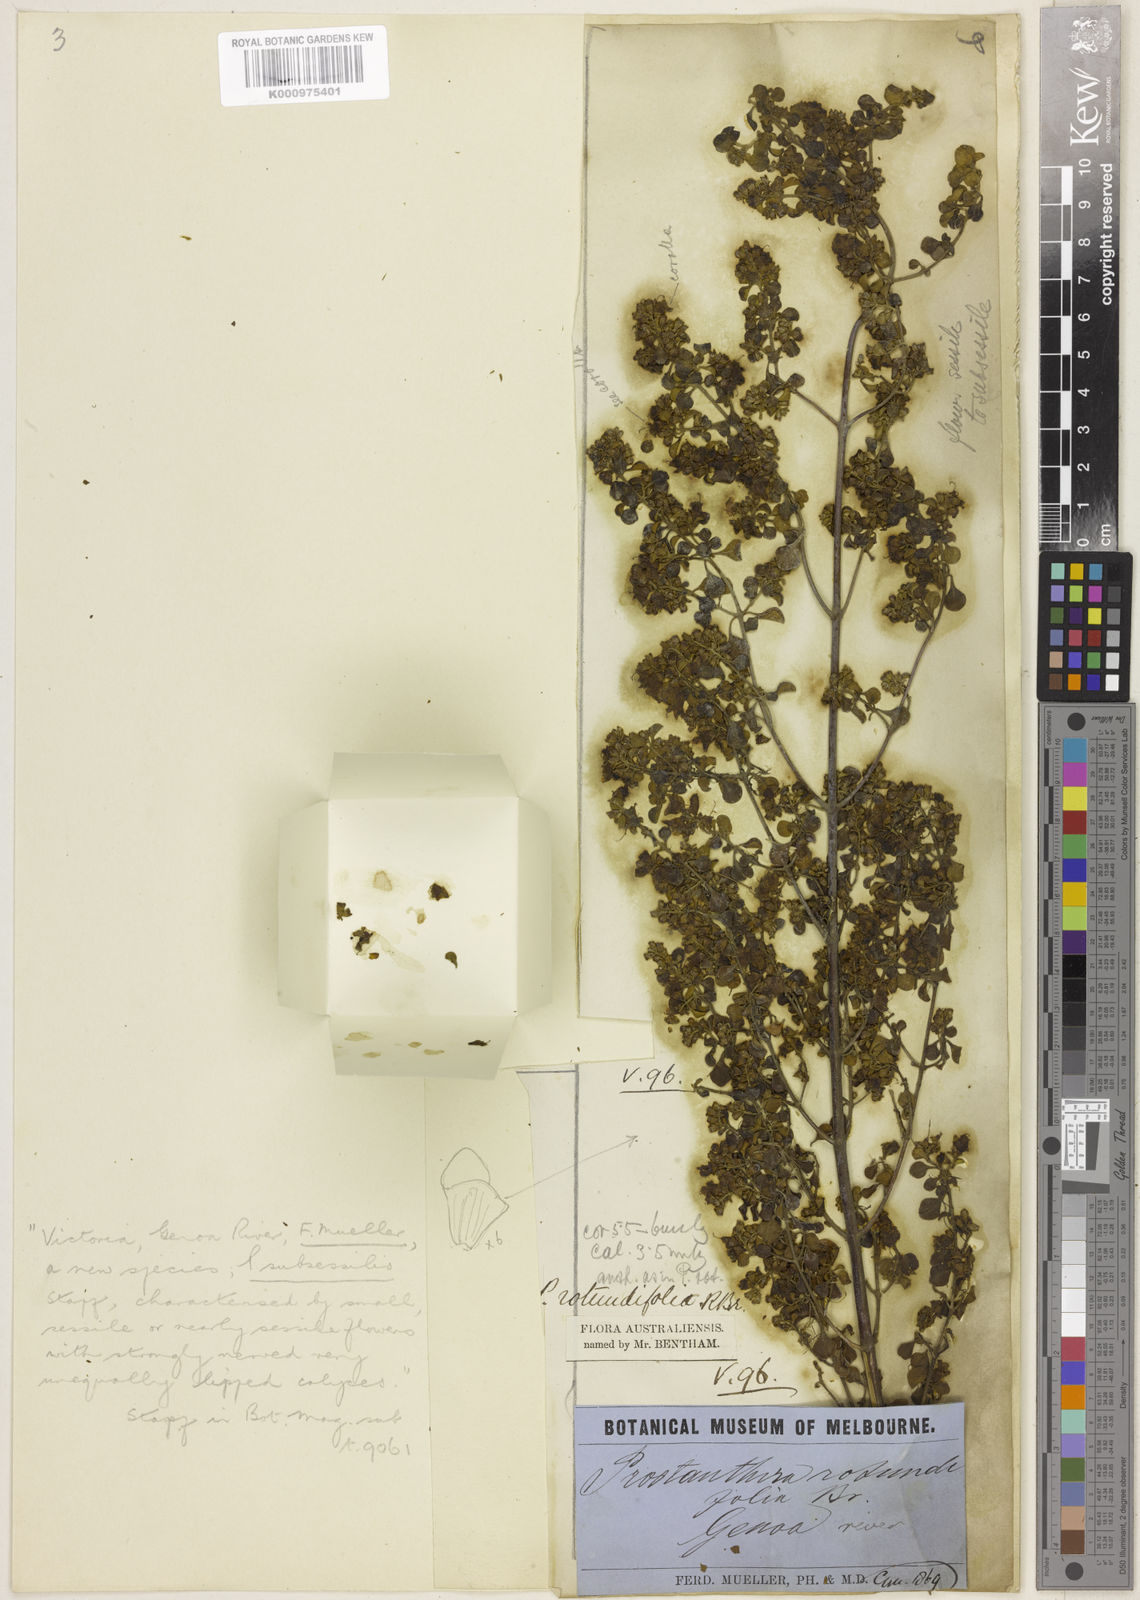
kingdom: Plantae
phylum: Tracheophyta
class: Magnoliopsida
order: Lamiales
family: Lamiaceae
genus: Prostanthera
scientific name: Prostanthera rotundifolia
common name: Round-leaf mintbush
